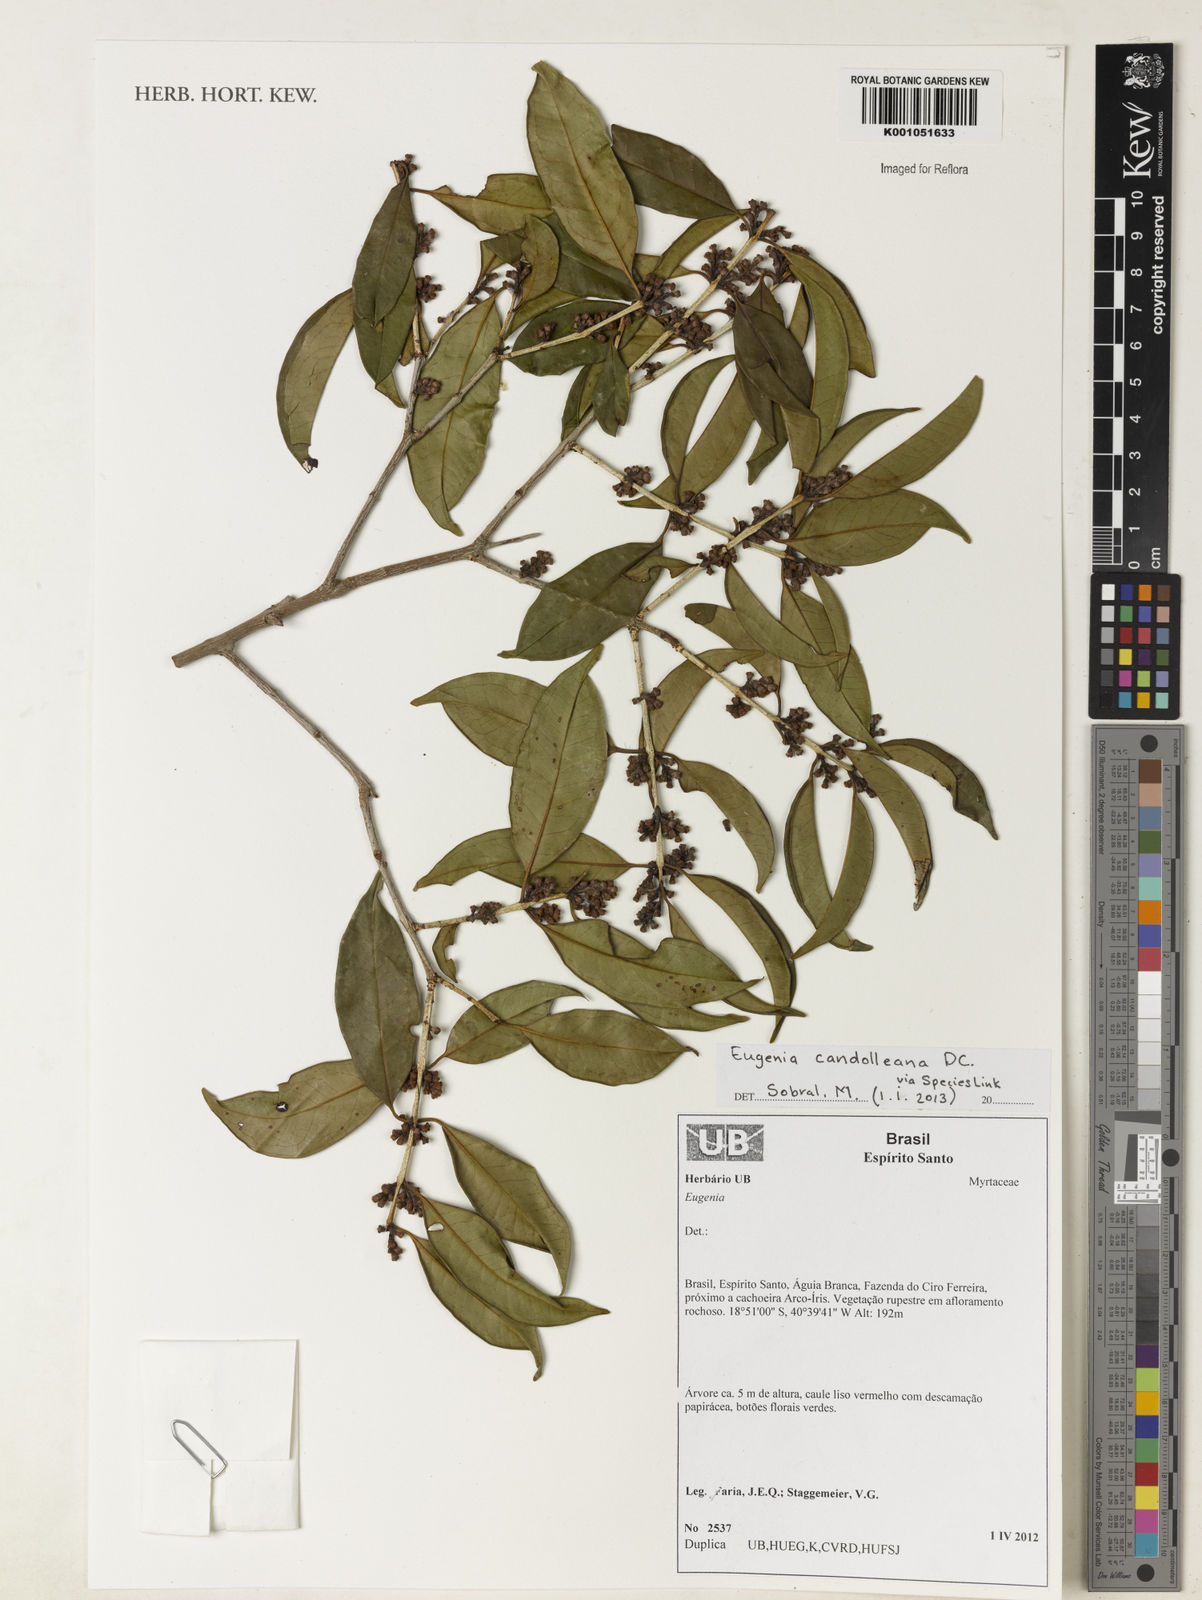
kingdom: Plantae
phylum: Tracheophyta
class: Magnoliopsida
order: Myrtales
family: Myrtaceae
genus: Eugenia
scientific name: Eugenia candolleana
